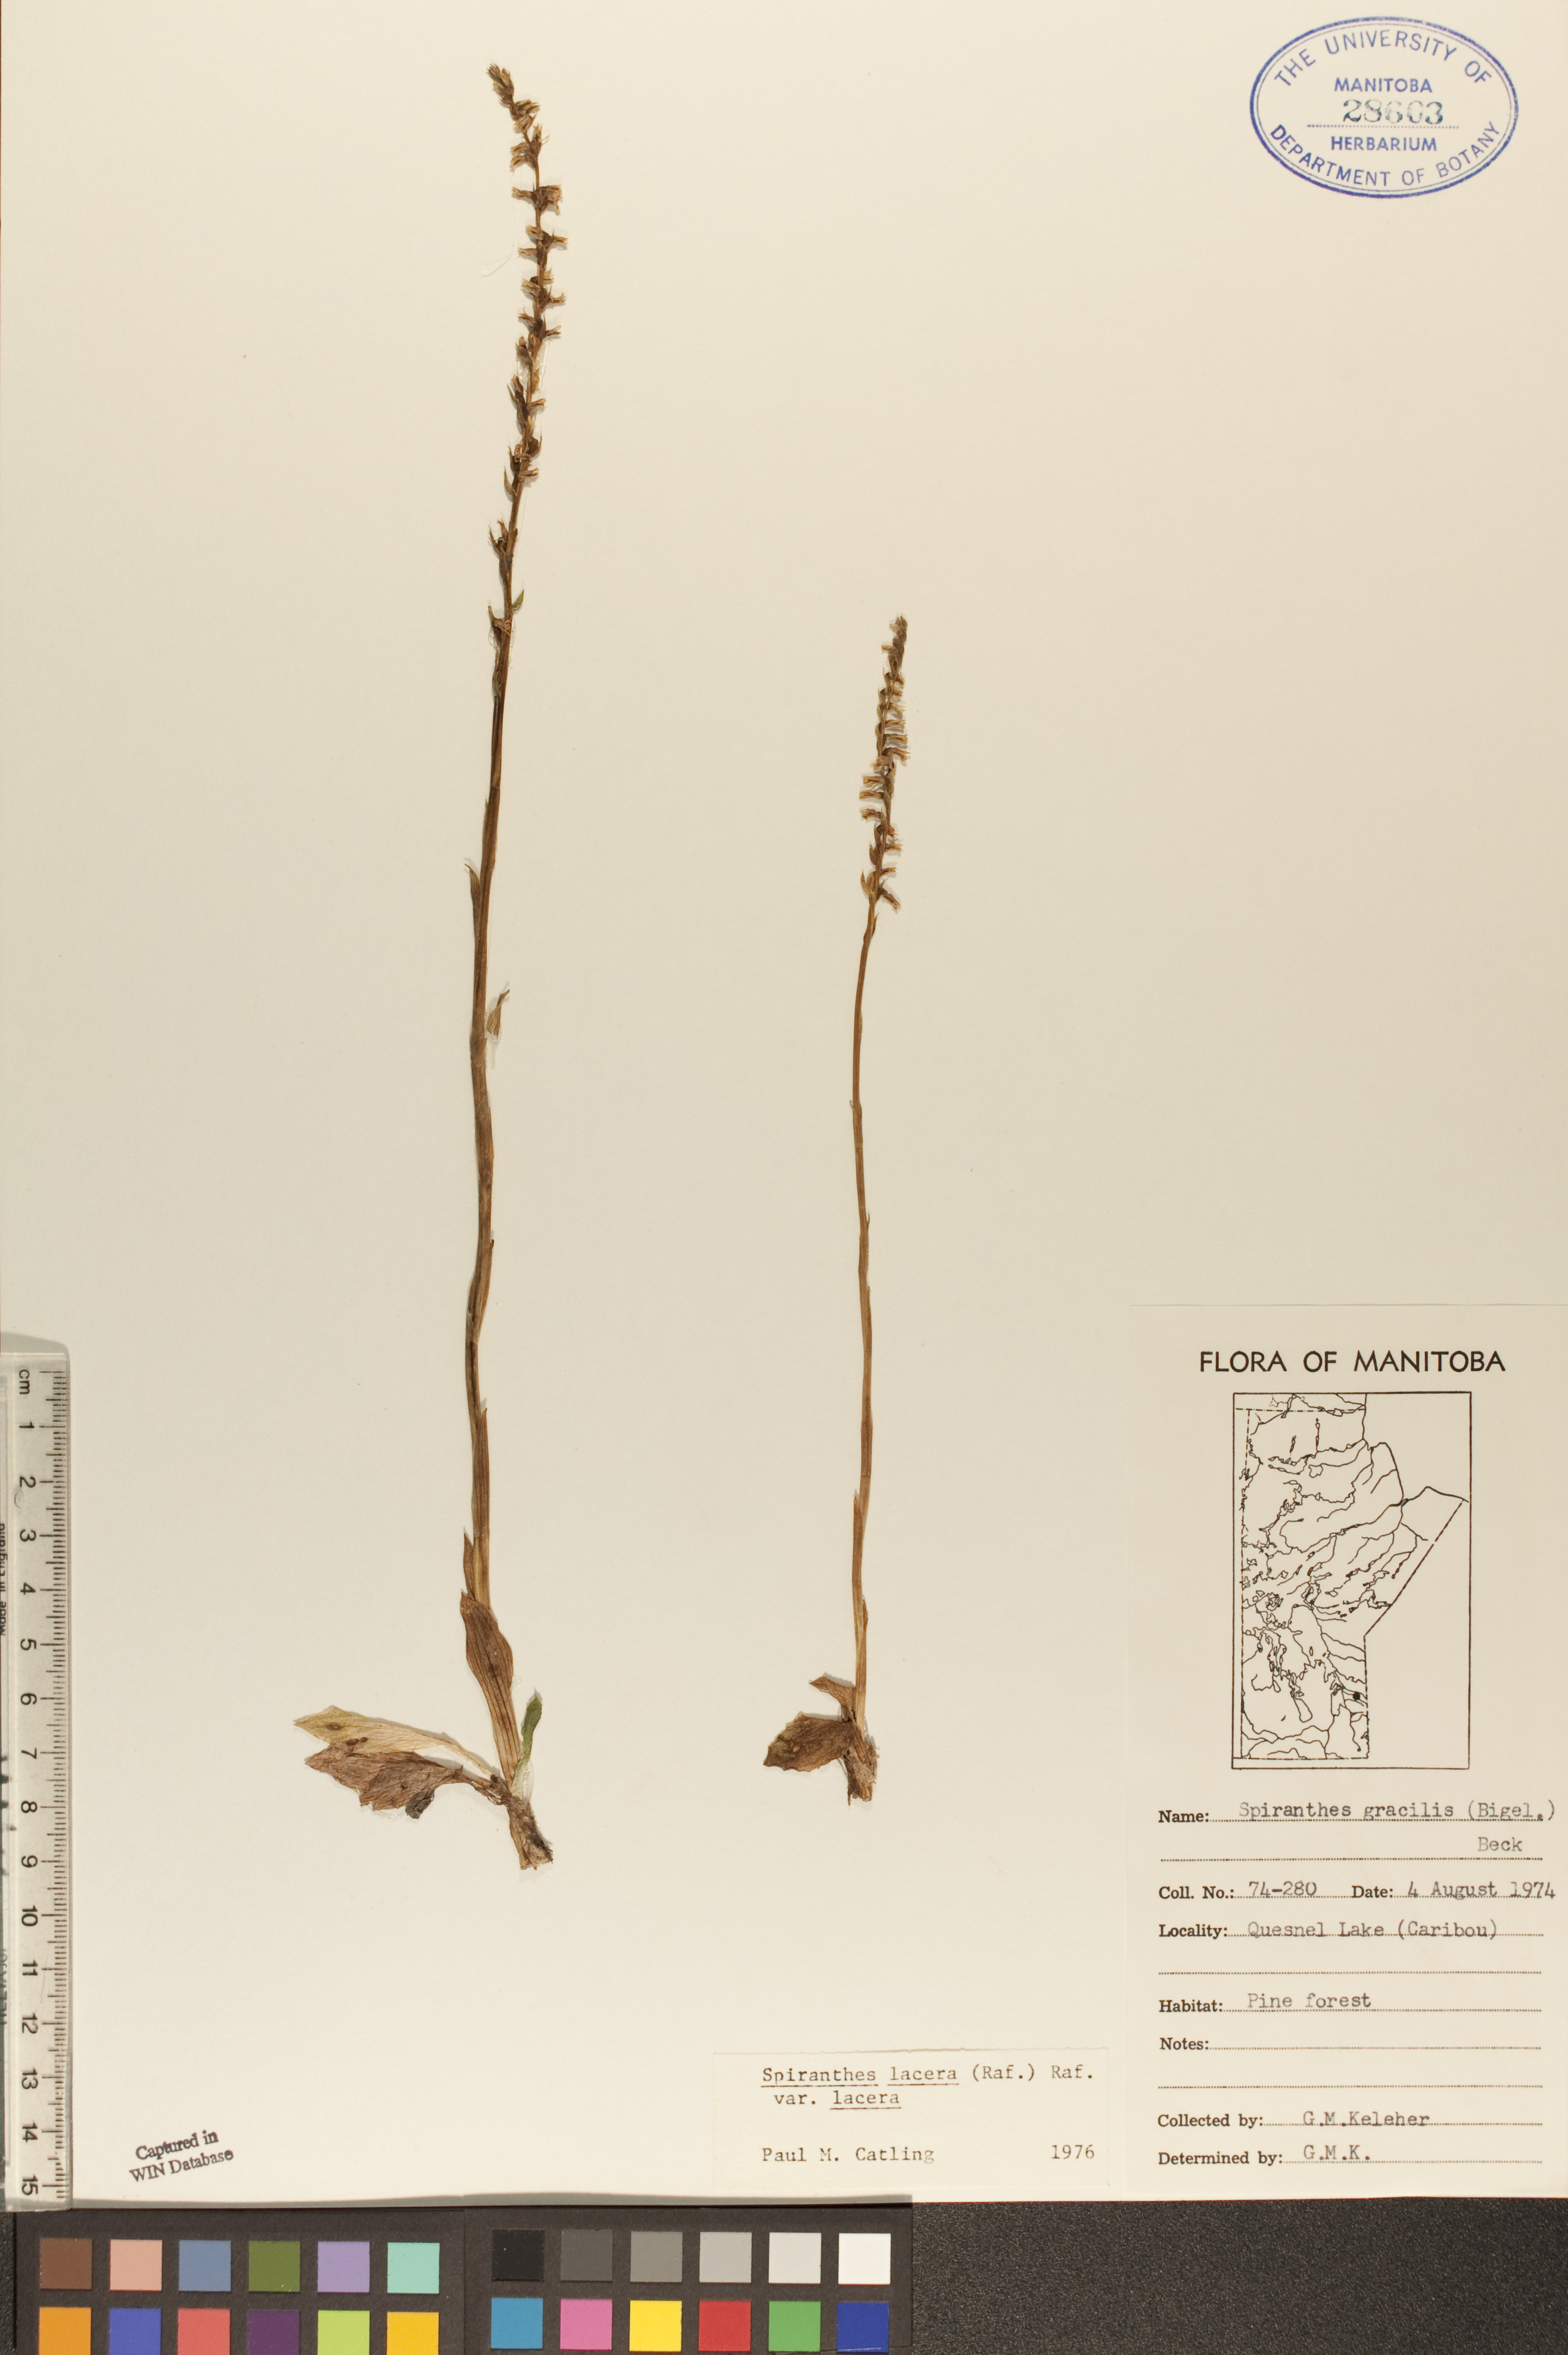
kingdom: Plantae
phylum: Tracheophyta
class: Liliopsida
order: Asparagales
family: Orchidaceae
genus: Spiranthes
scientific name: Spiranthes lacera
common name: Northern slender ladies'-tresses
